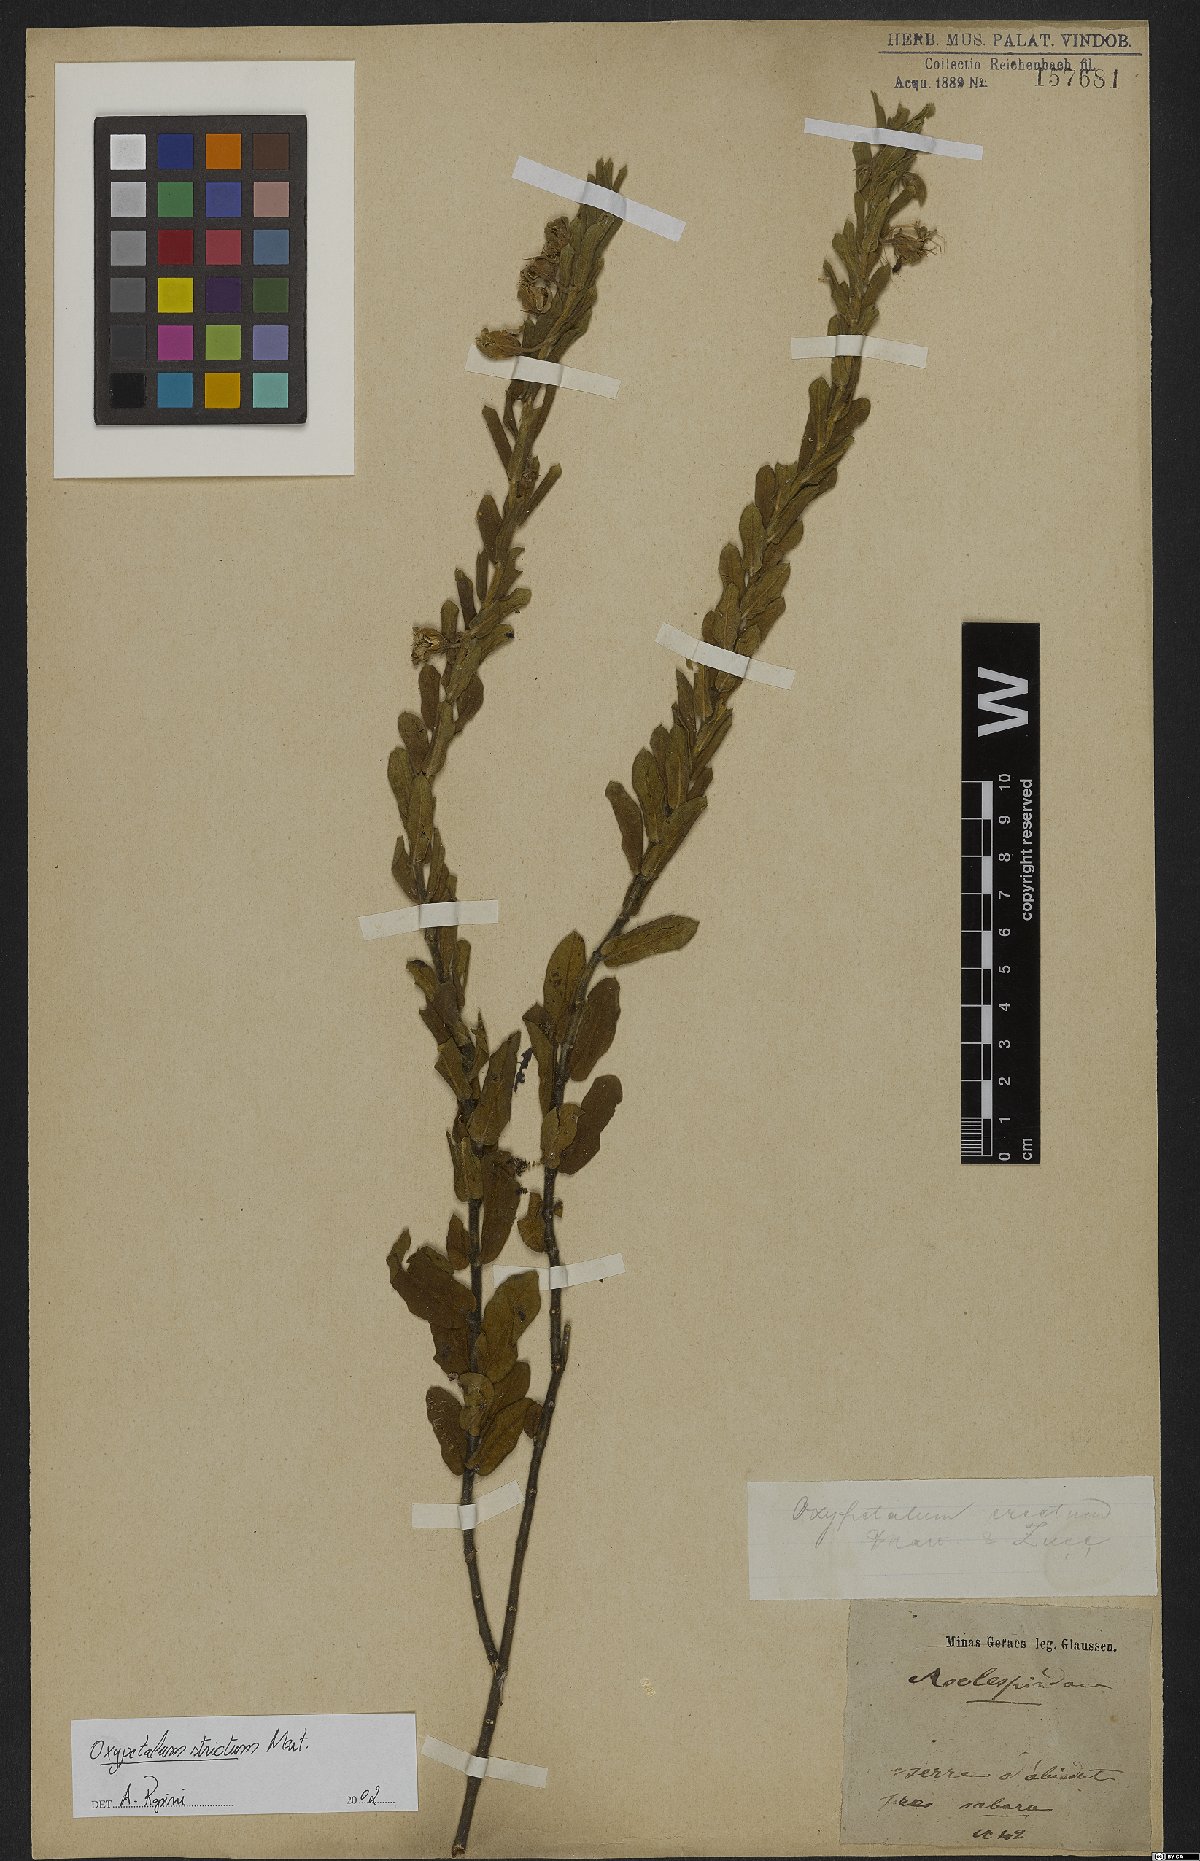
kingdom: Plantae
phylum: Tracheophyta
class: Magnoliopsida
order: Gentianales
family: Apocynaceae
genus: Oxypetalum
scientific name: Oxypetalum strictum
